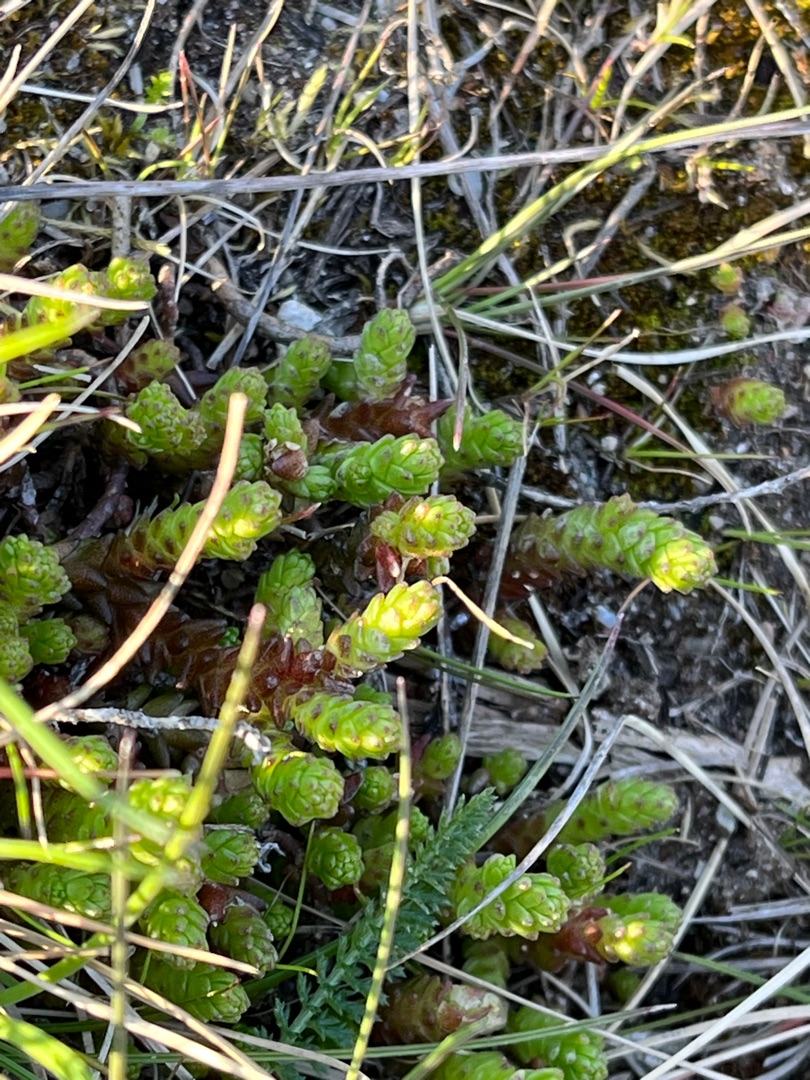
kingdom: Plantae
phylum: Tracheophyta
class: Magnoliopsida
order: Saxifragales
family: Crassulaceae
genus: Sedum
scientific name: Sedum acre
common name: Bidende stenurt
